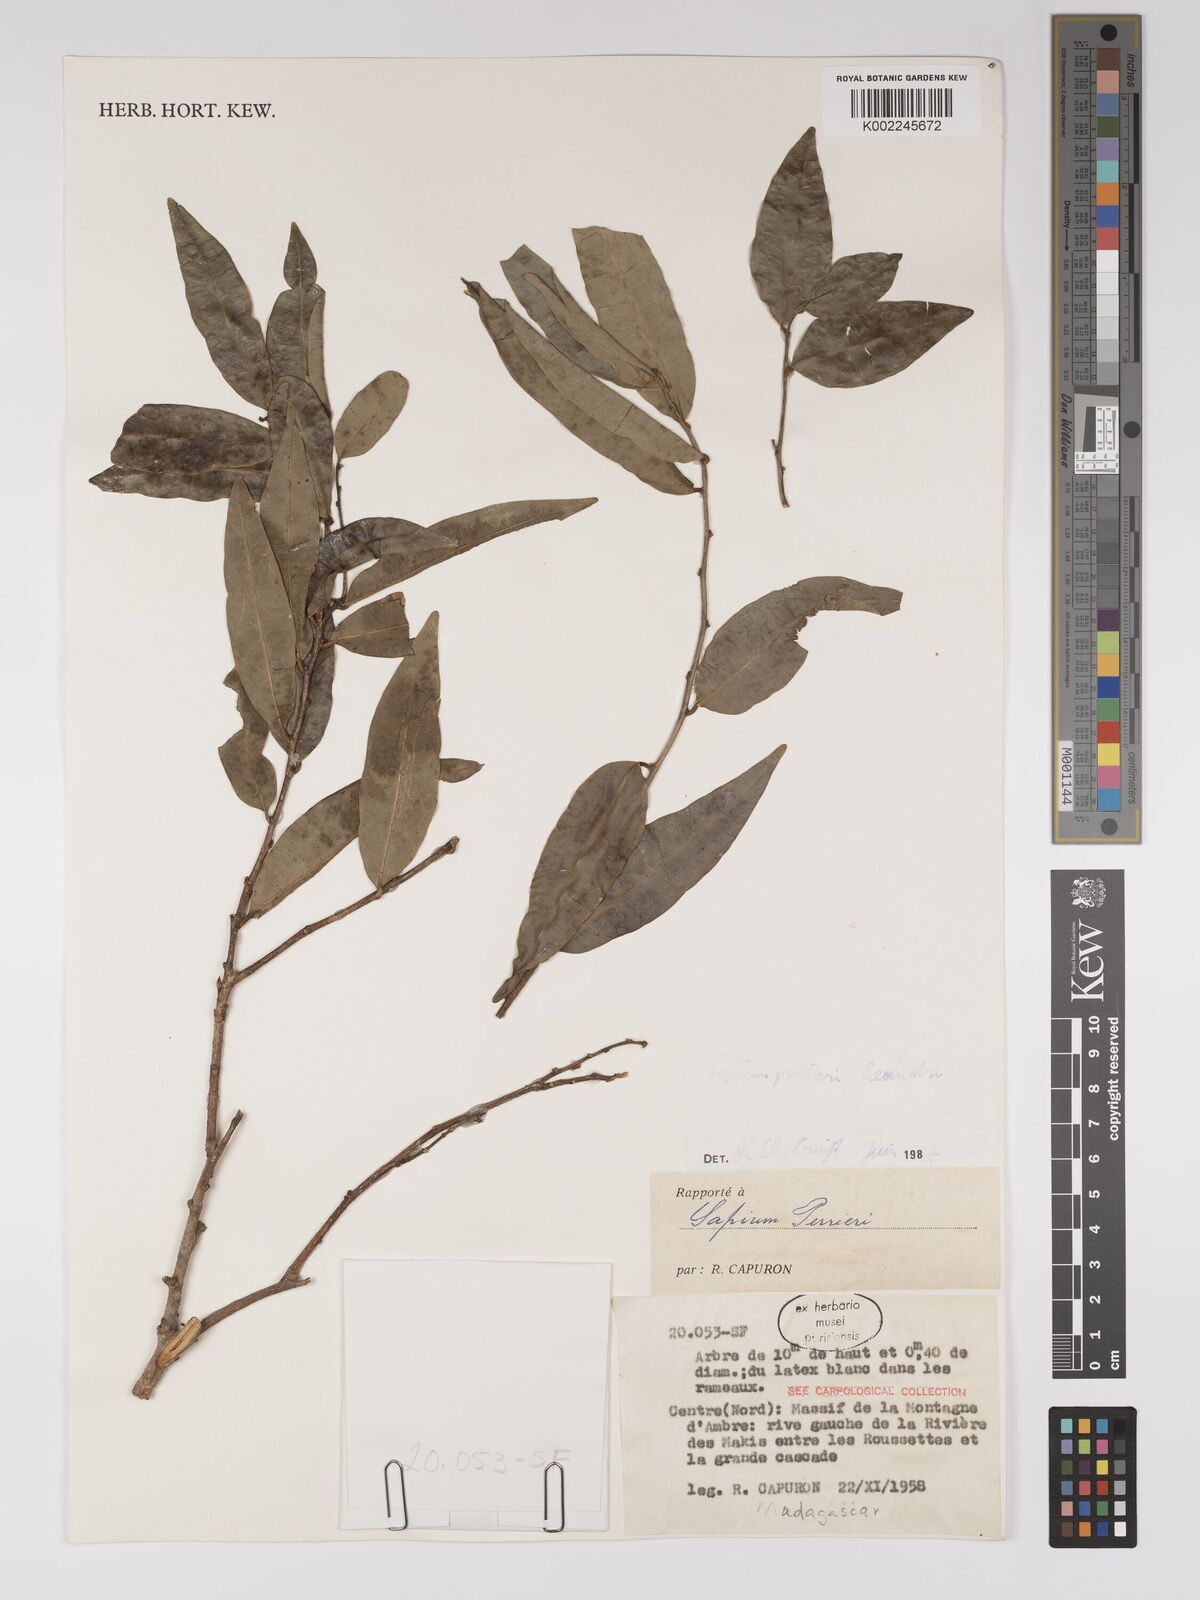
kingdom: Plantae
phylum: Tracheophyta
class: Magnoliopsida
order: Malpighiales
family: Euphorbiaceae
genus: Anomostachys
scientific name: Anomostachys lastellei
